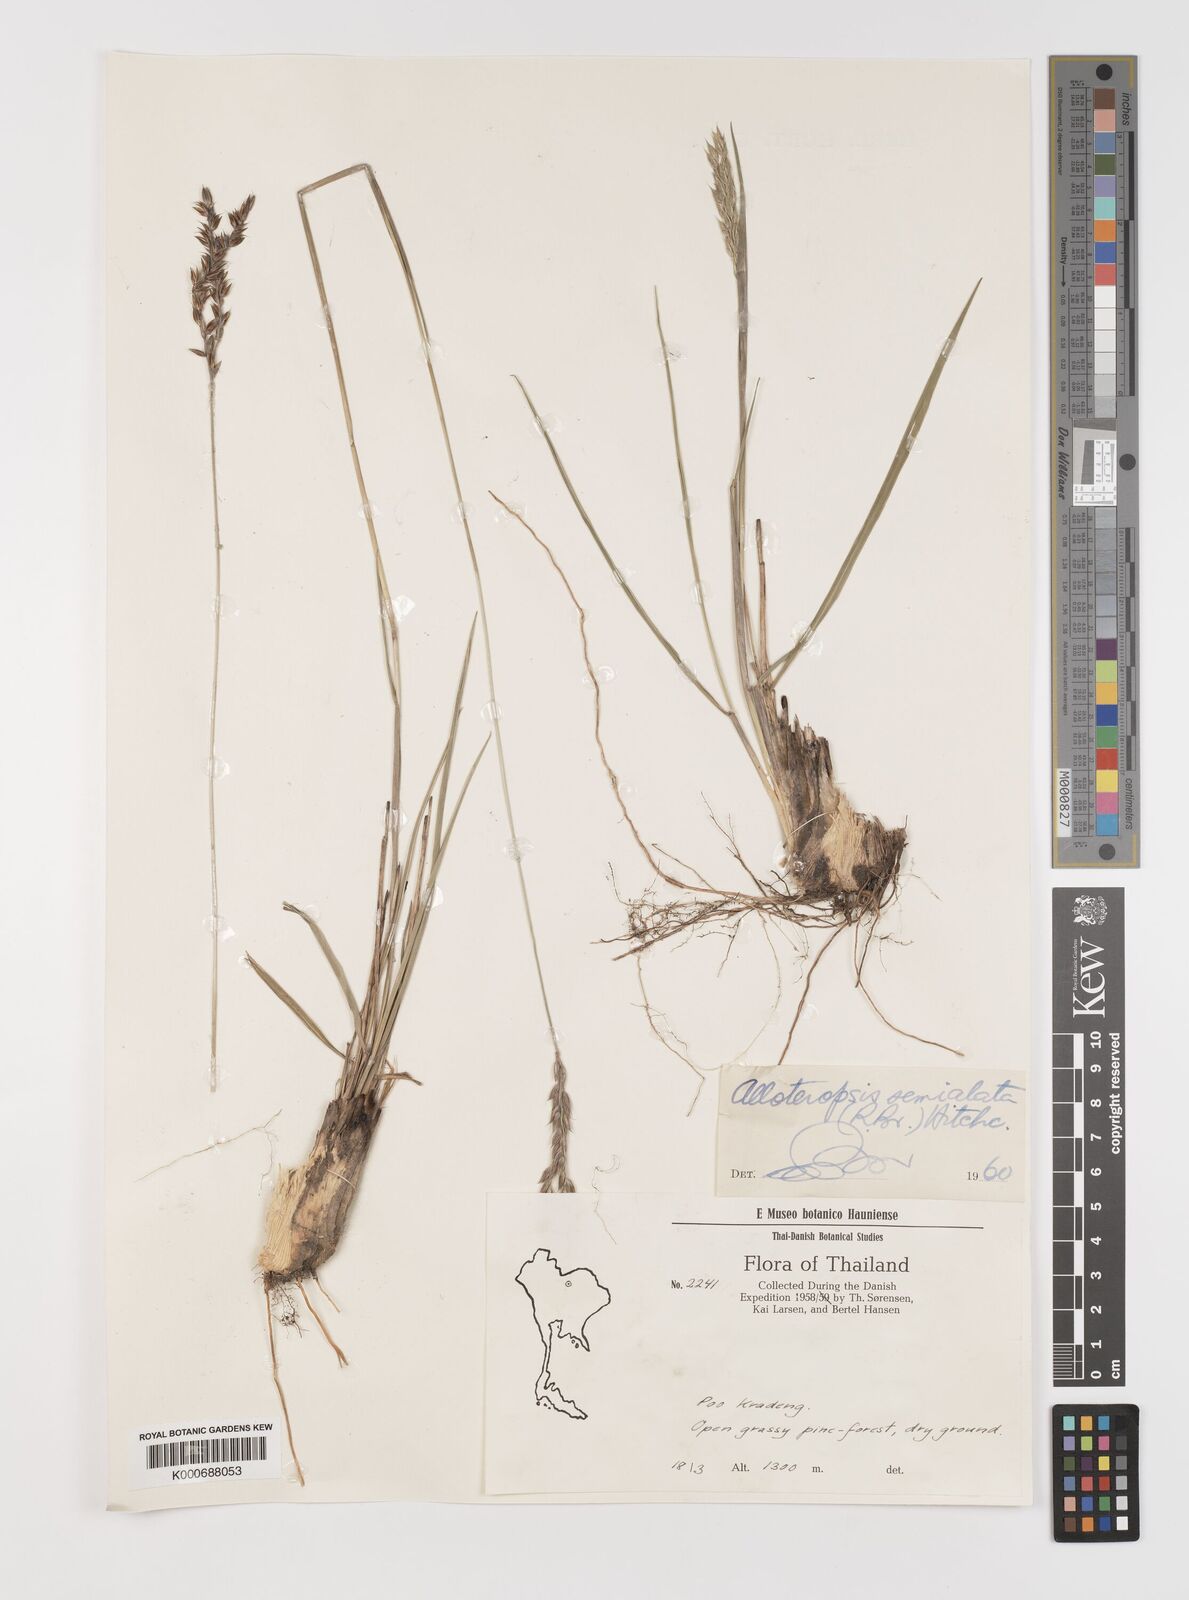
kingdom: Plantae
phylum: Tracheophyta
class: Liliopsida
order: Poales
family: Poaceae
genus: Alloteropsis
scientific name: Alloteropsis semialata
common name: Cockatoo grass
